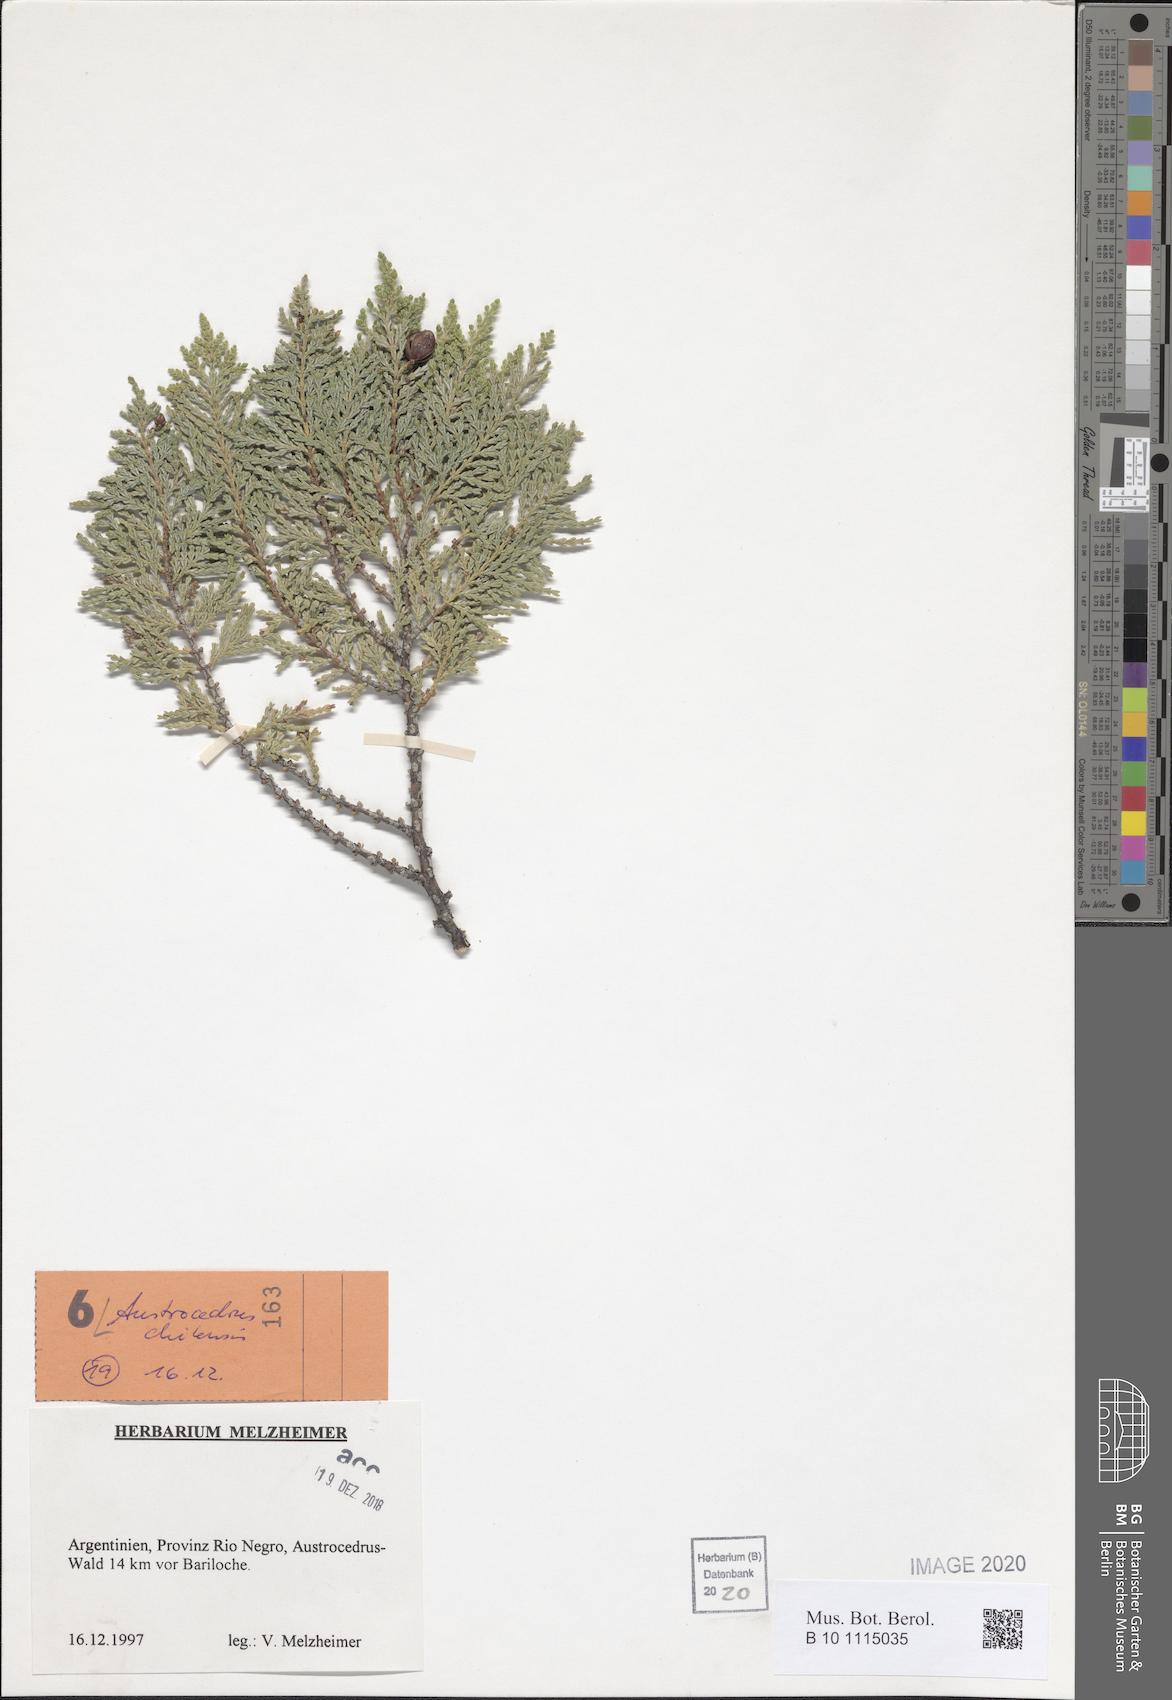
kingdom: Plantae
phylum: Tracheophyta
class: Pinopsida
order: Pinales
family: Cupressaceae
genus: Austrocedrus
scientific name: Austrocedrus chilensis
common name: Chilean incense-cedar
